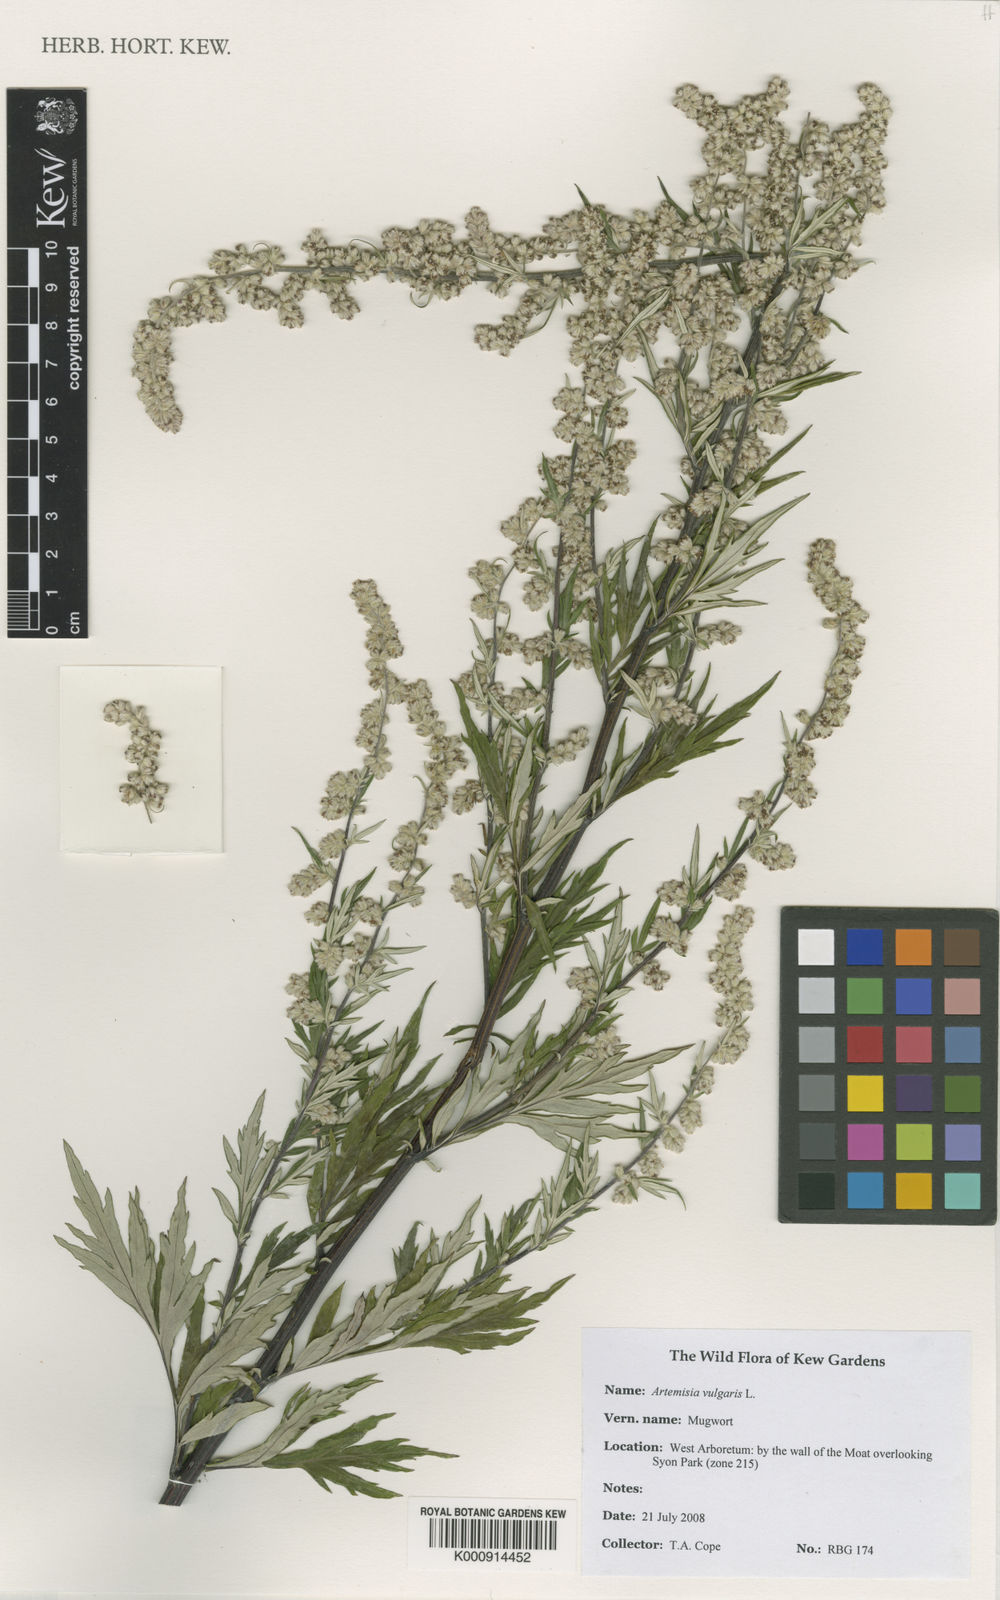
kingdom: Plantae
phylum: Tracheophyta
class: Magnoliopsida
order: Asterales
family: Asteraceae
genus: Artemisia
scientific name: Artemisia vulgaris
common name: Mugwort
